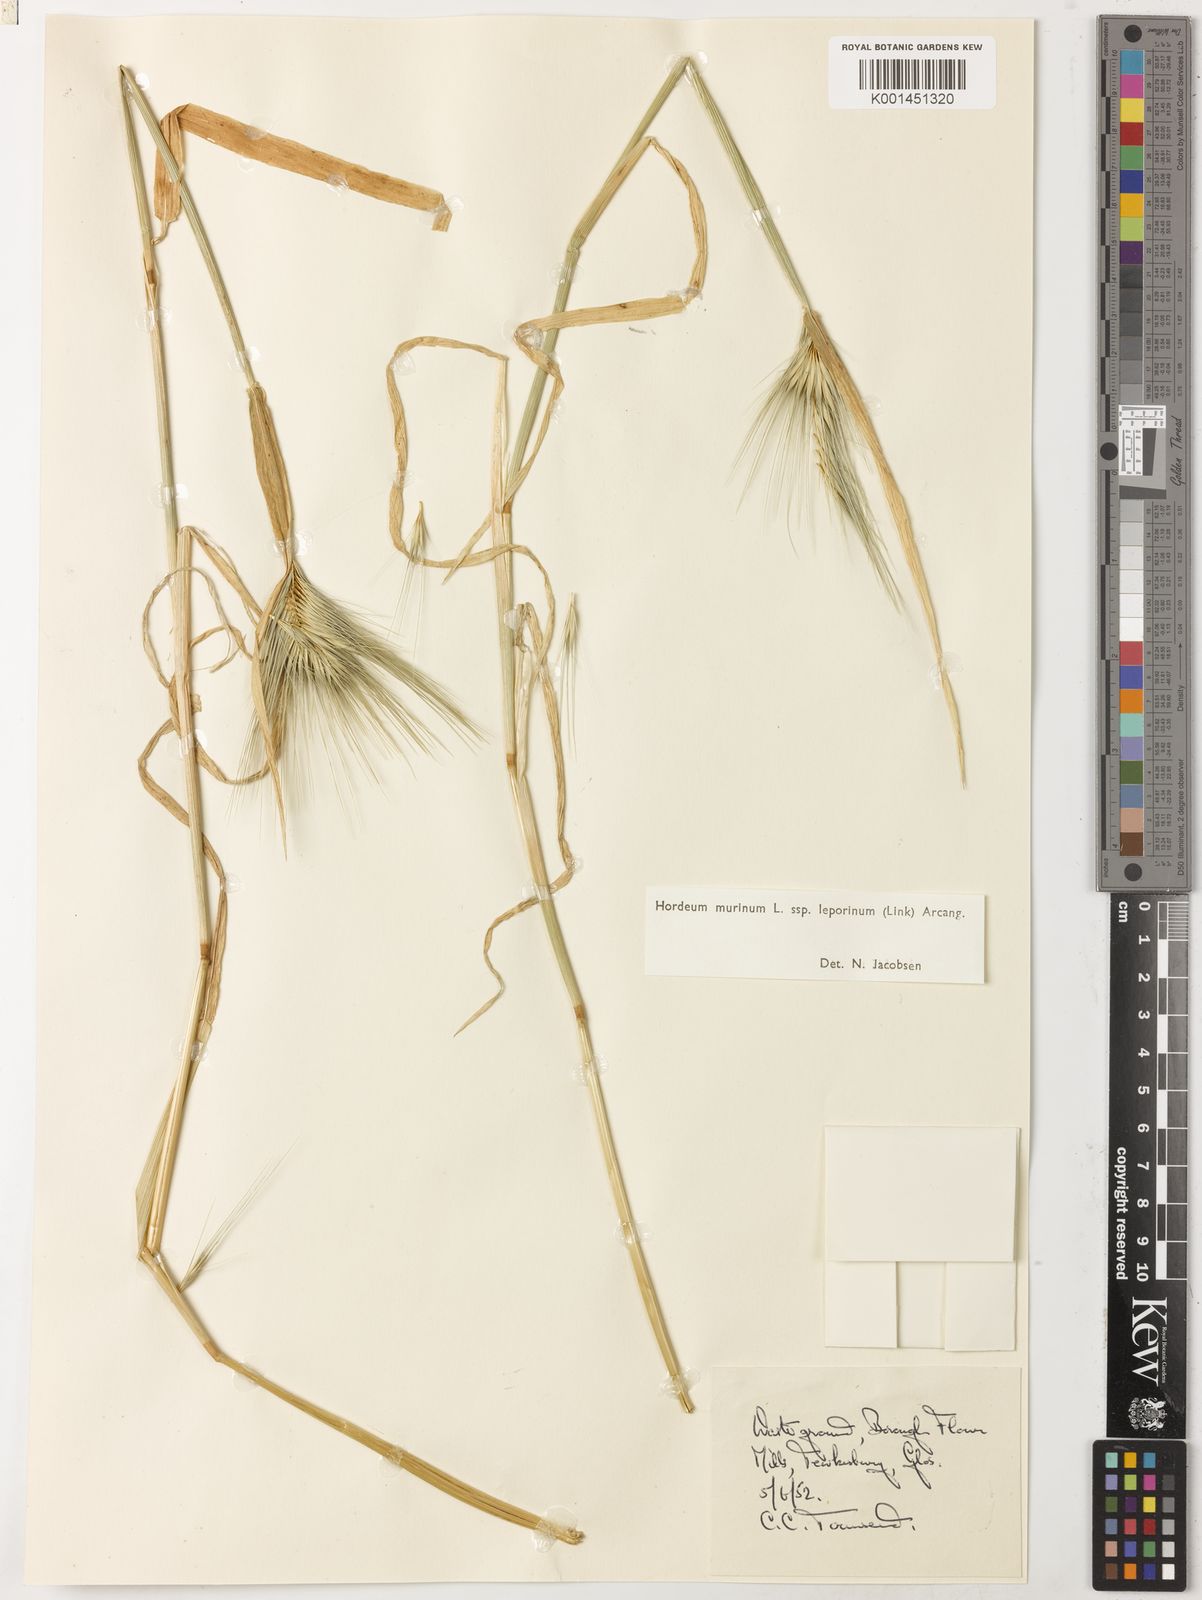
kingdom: Plantae
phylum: Tracheophyta
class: Liliopsida
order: Poales
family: Poaceae
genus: Hordeum
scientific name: Hordeum murinum
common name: Wall barley
